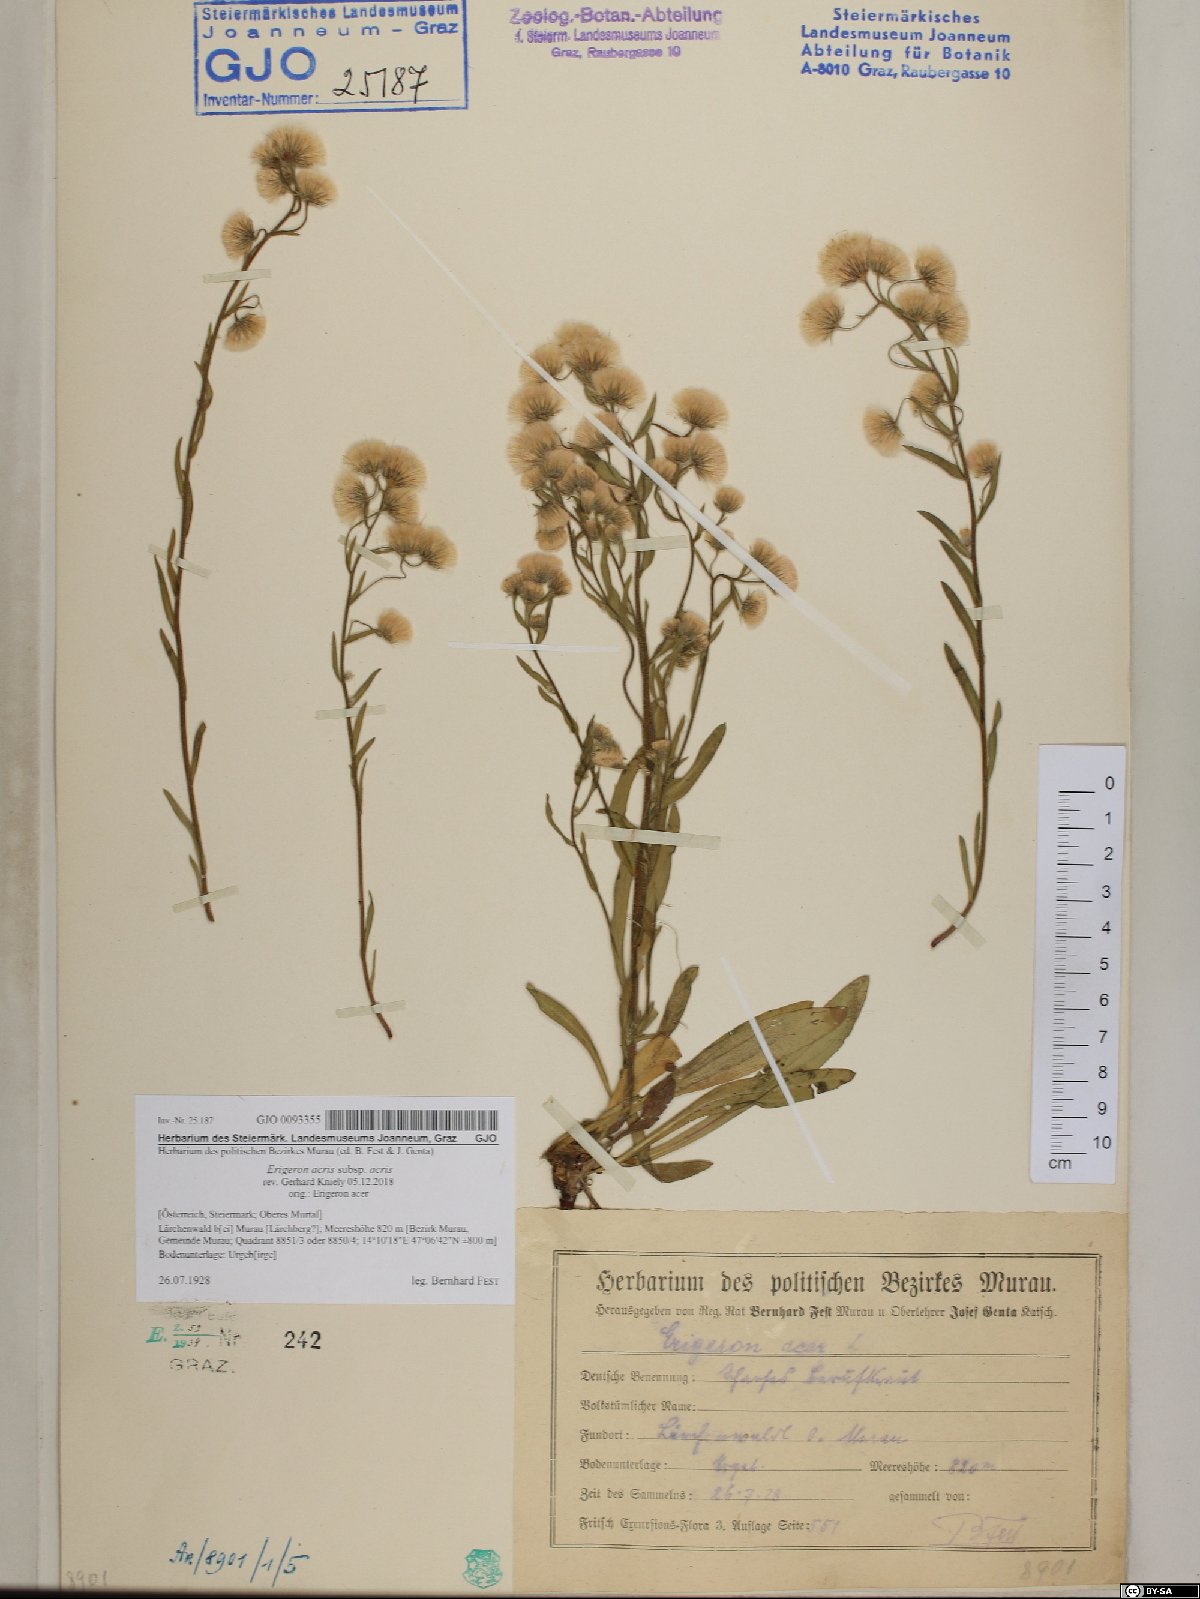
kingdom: Plantae
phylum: Tracheophyta
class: Magnoliopsida
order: Asterales
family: Asteraceae
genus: Erigeron
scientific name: Erigeron acris
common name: Blue fleabane
